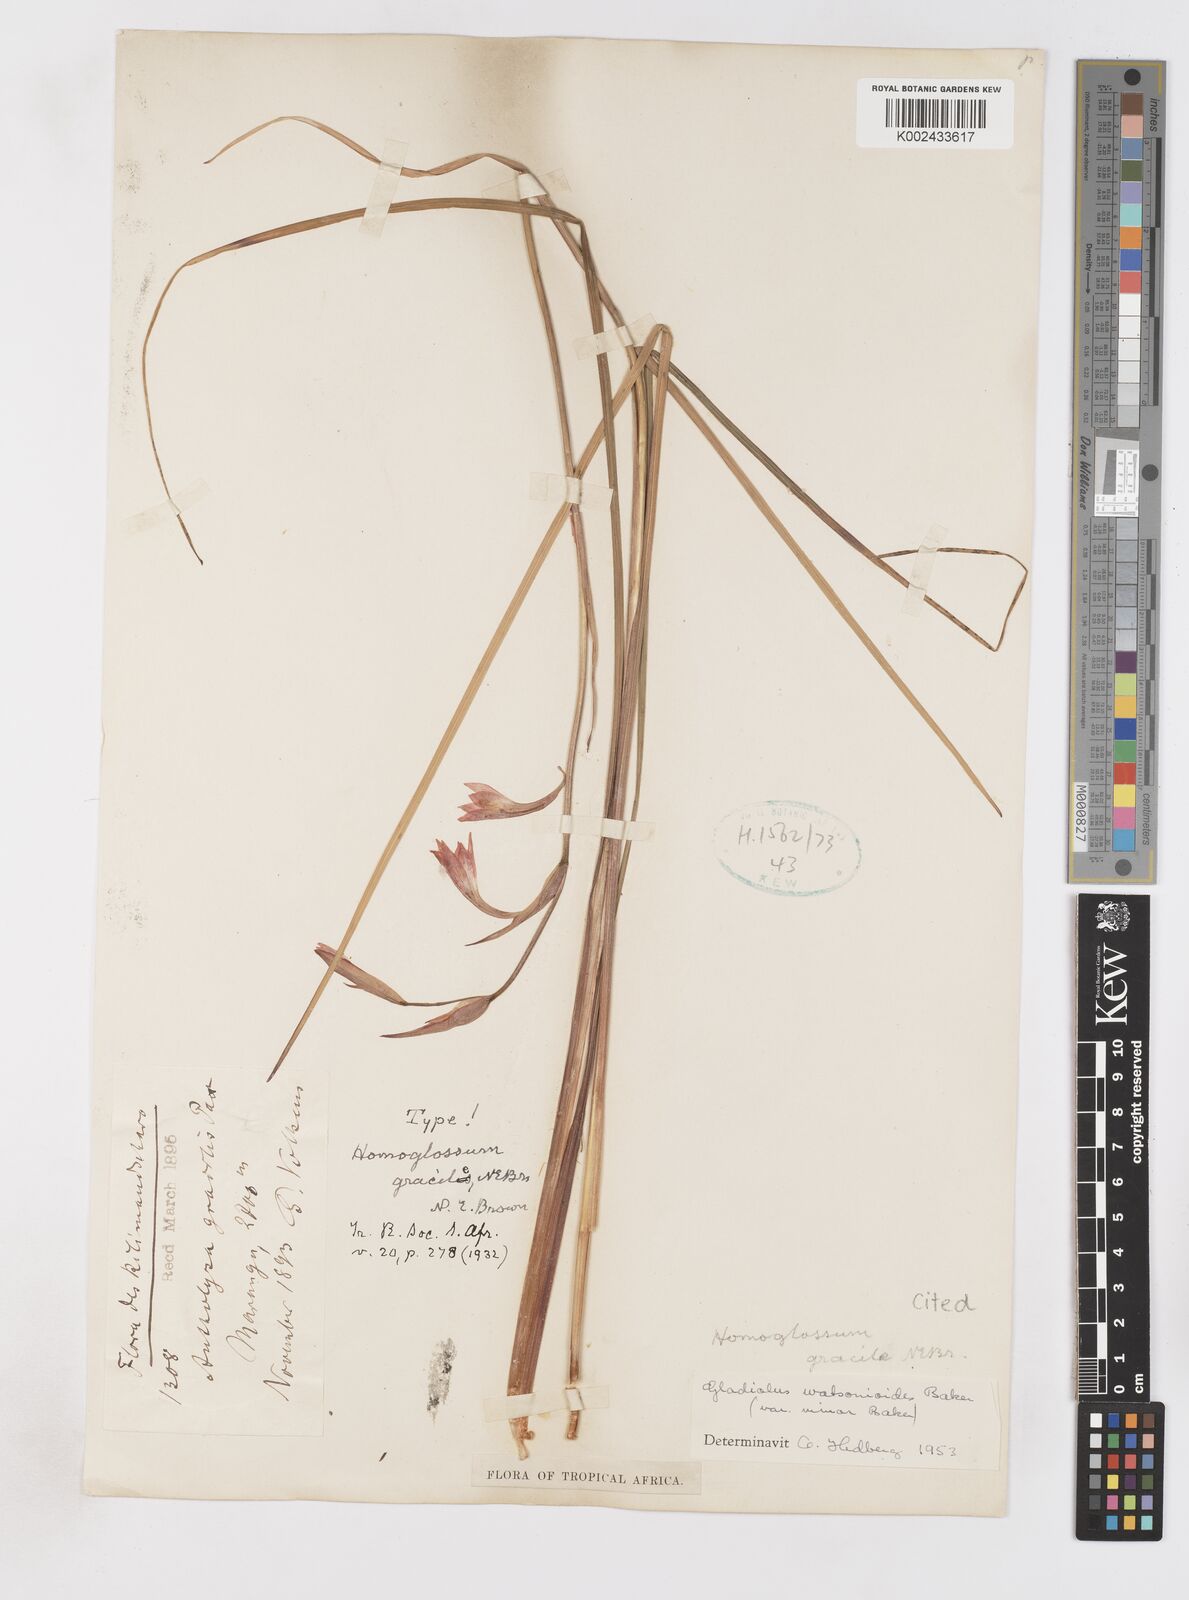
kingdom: Plantae
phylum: Tracheophyta
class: Liliopsida
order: Asparagales
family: Iridaceae
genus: Gladiolus
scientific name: Gladiolus watsonioides
